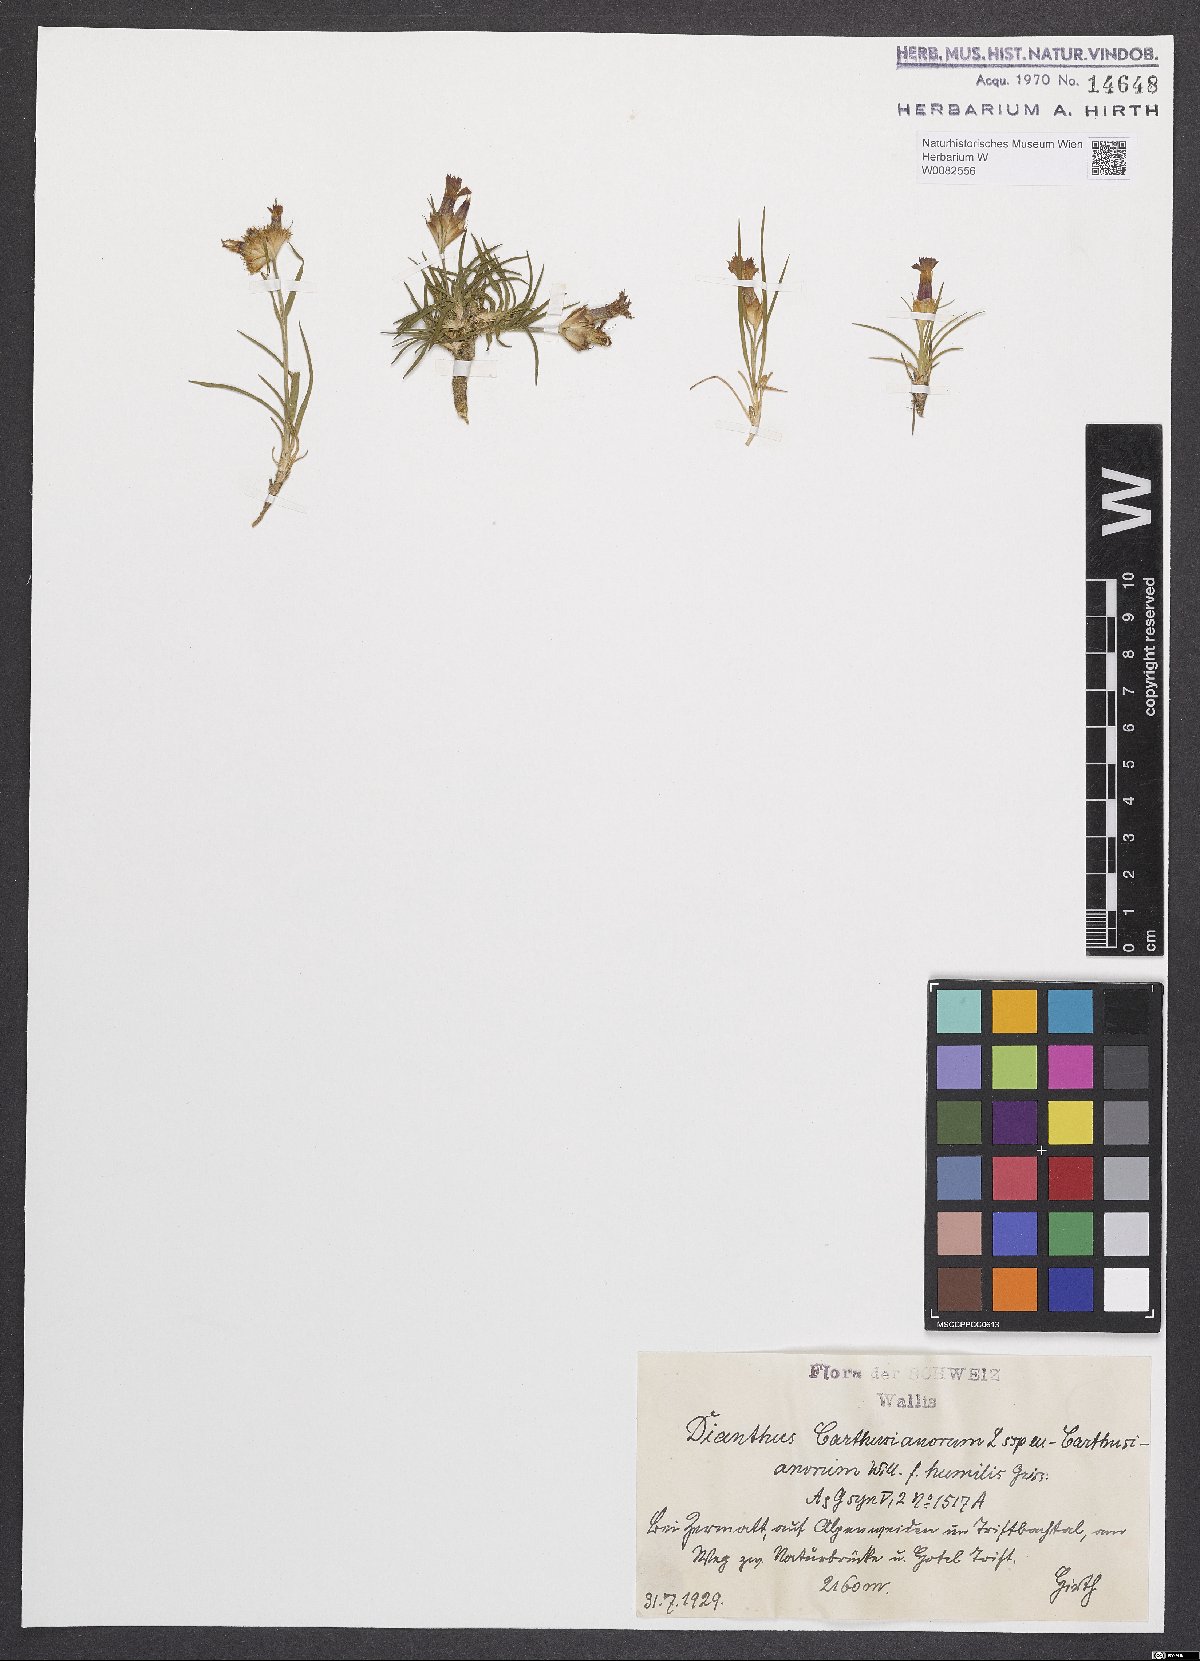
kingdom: Plantae
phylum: Tracheophyta
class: Magnoliopsida
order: Caryophyllales
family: Caryophyllaceae
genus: Dianthus
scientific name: Dianthus carthusianorum
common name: Carthusian pink
